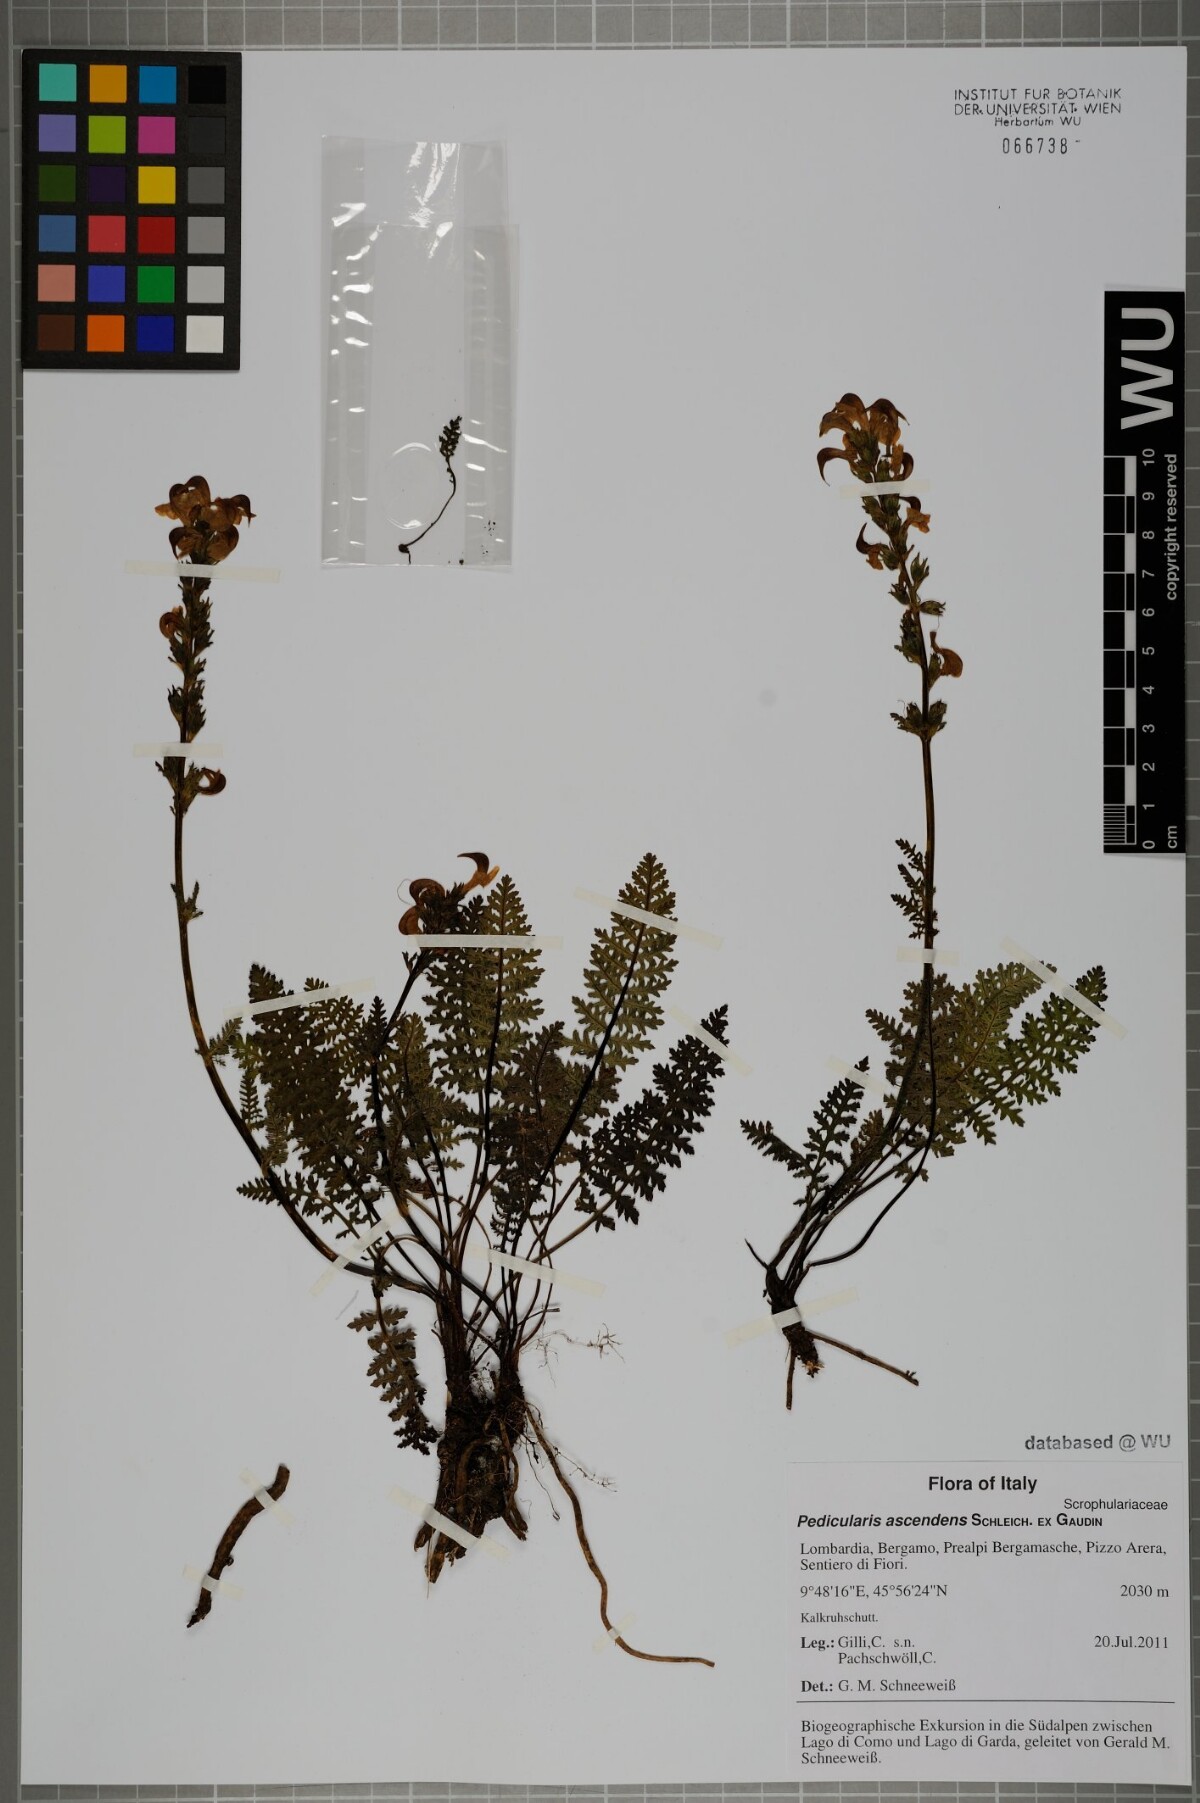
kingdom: Plantae
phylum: Tracheophyta
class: Magnoliopsida
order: Lamiales
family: Orobanchaceae
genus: Pedicularis
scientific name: Pedicularis ascendens
